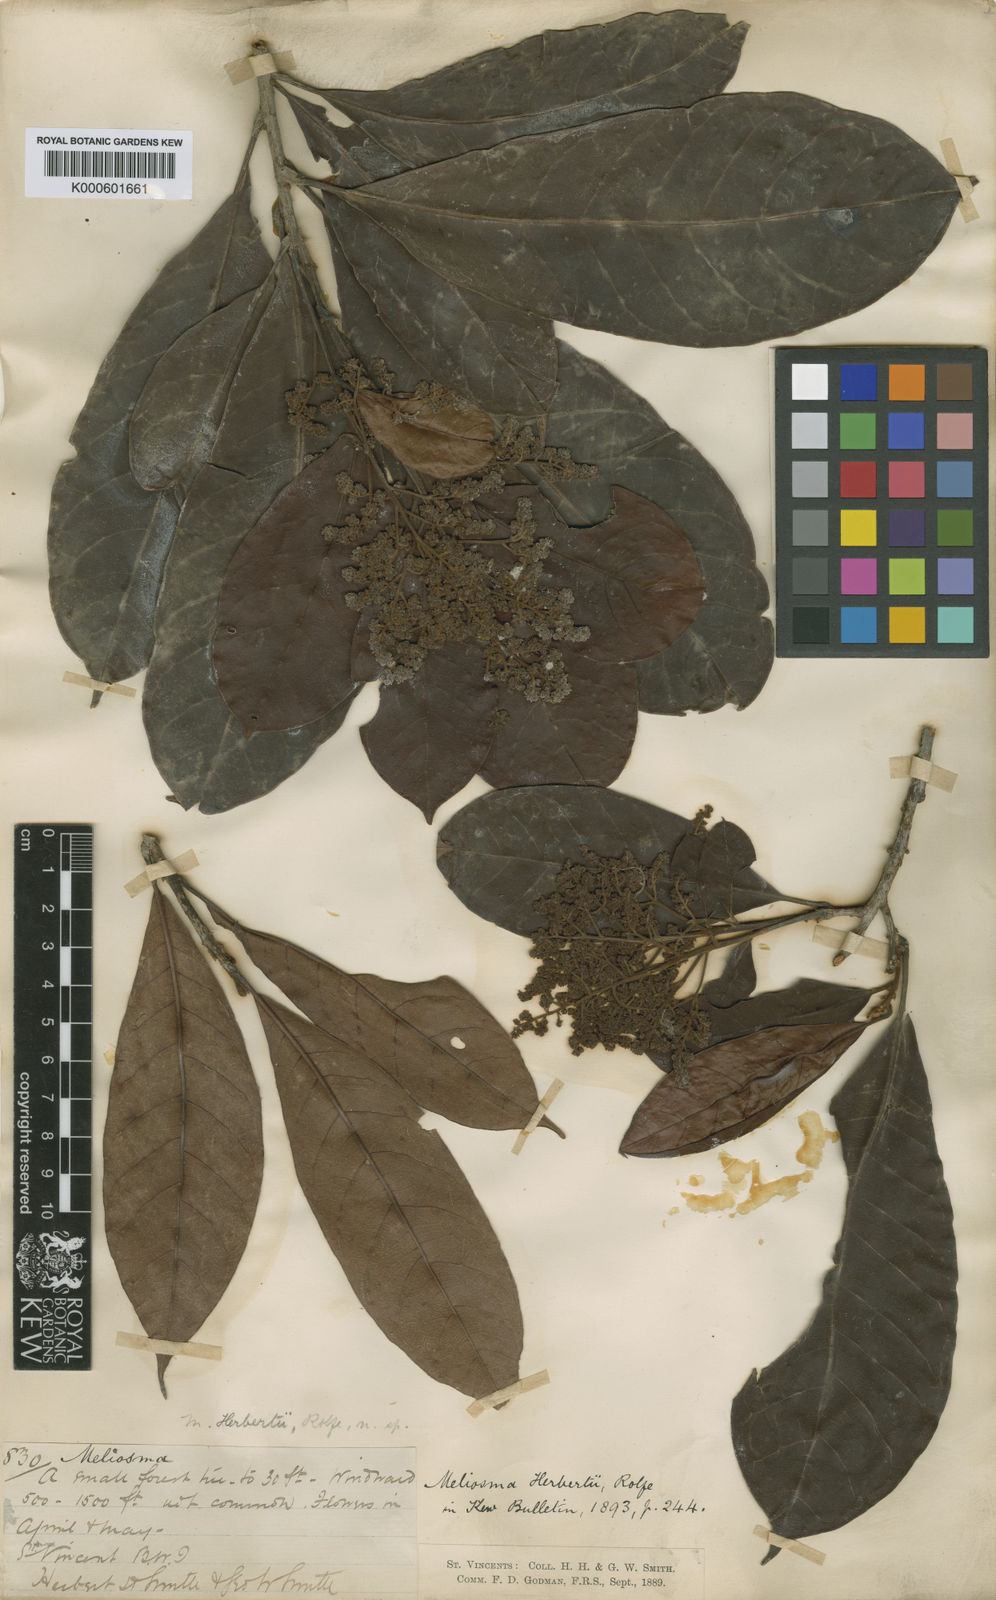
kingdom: Plantae
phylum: Tracheophyta
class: Magnoliopsida
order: Proteales
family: Sabiaceae
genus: Meliosma
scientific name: Meliosma herbertii
